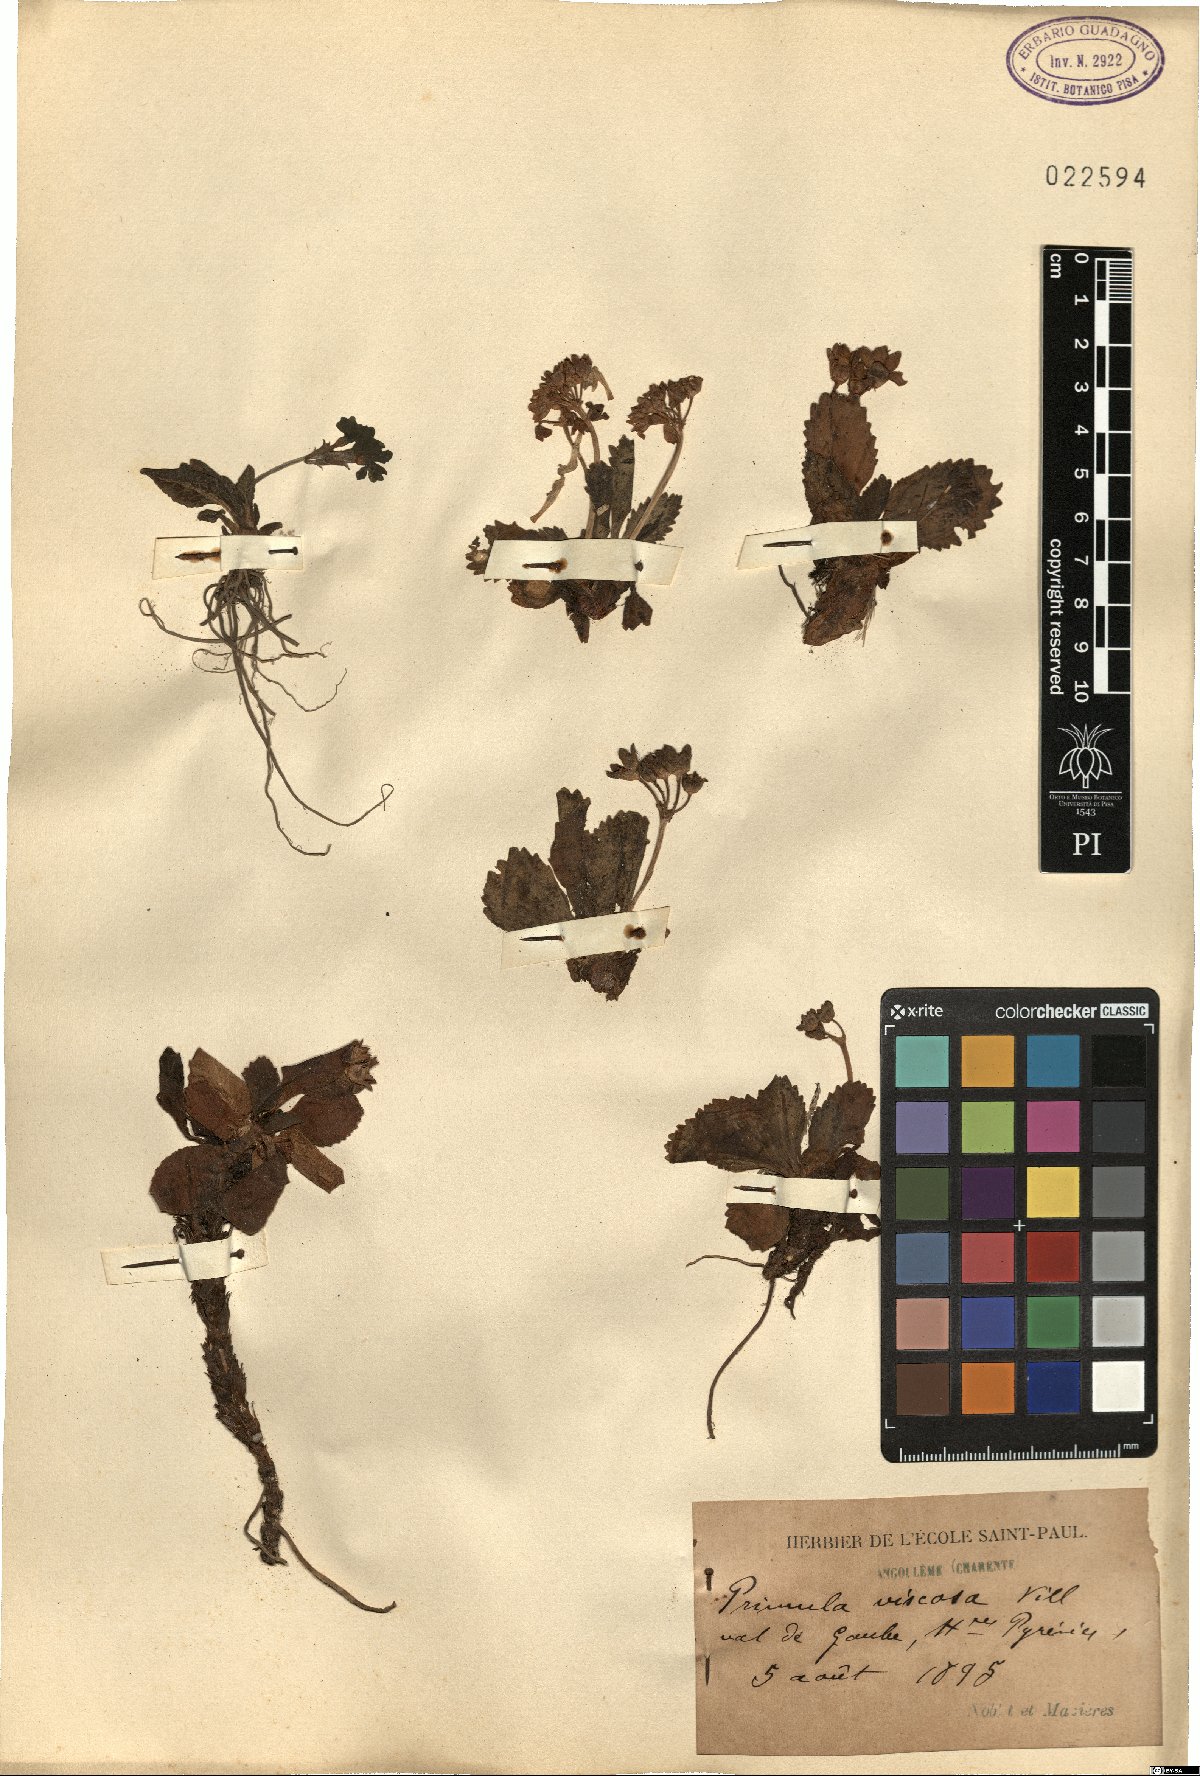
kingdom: Plantae
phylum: Tracheophyta
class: Magnoliopsida
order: Ericales
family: Primulaceae
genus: Primula
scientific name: Primula latifolia
